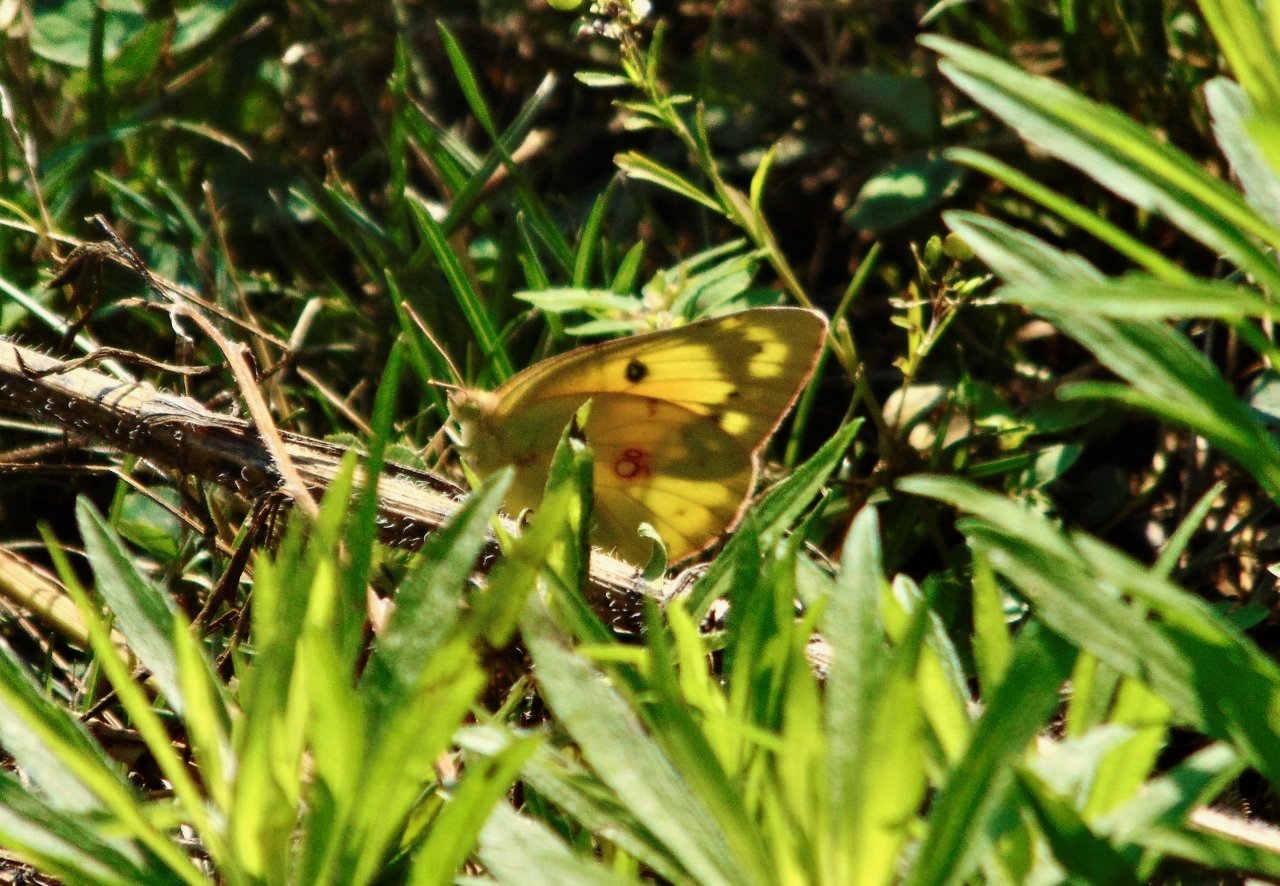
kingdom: Animalia
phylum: Arthropoda
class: Insecta
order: Lepidoptera
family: Pieridae
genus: Colias
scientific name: Colias eurytheme
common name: Orange Sulphur
